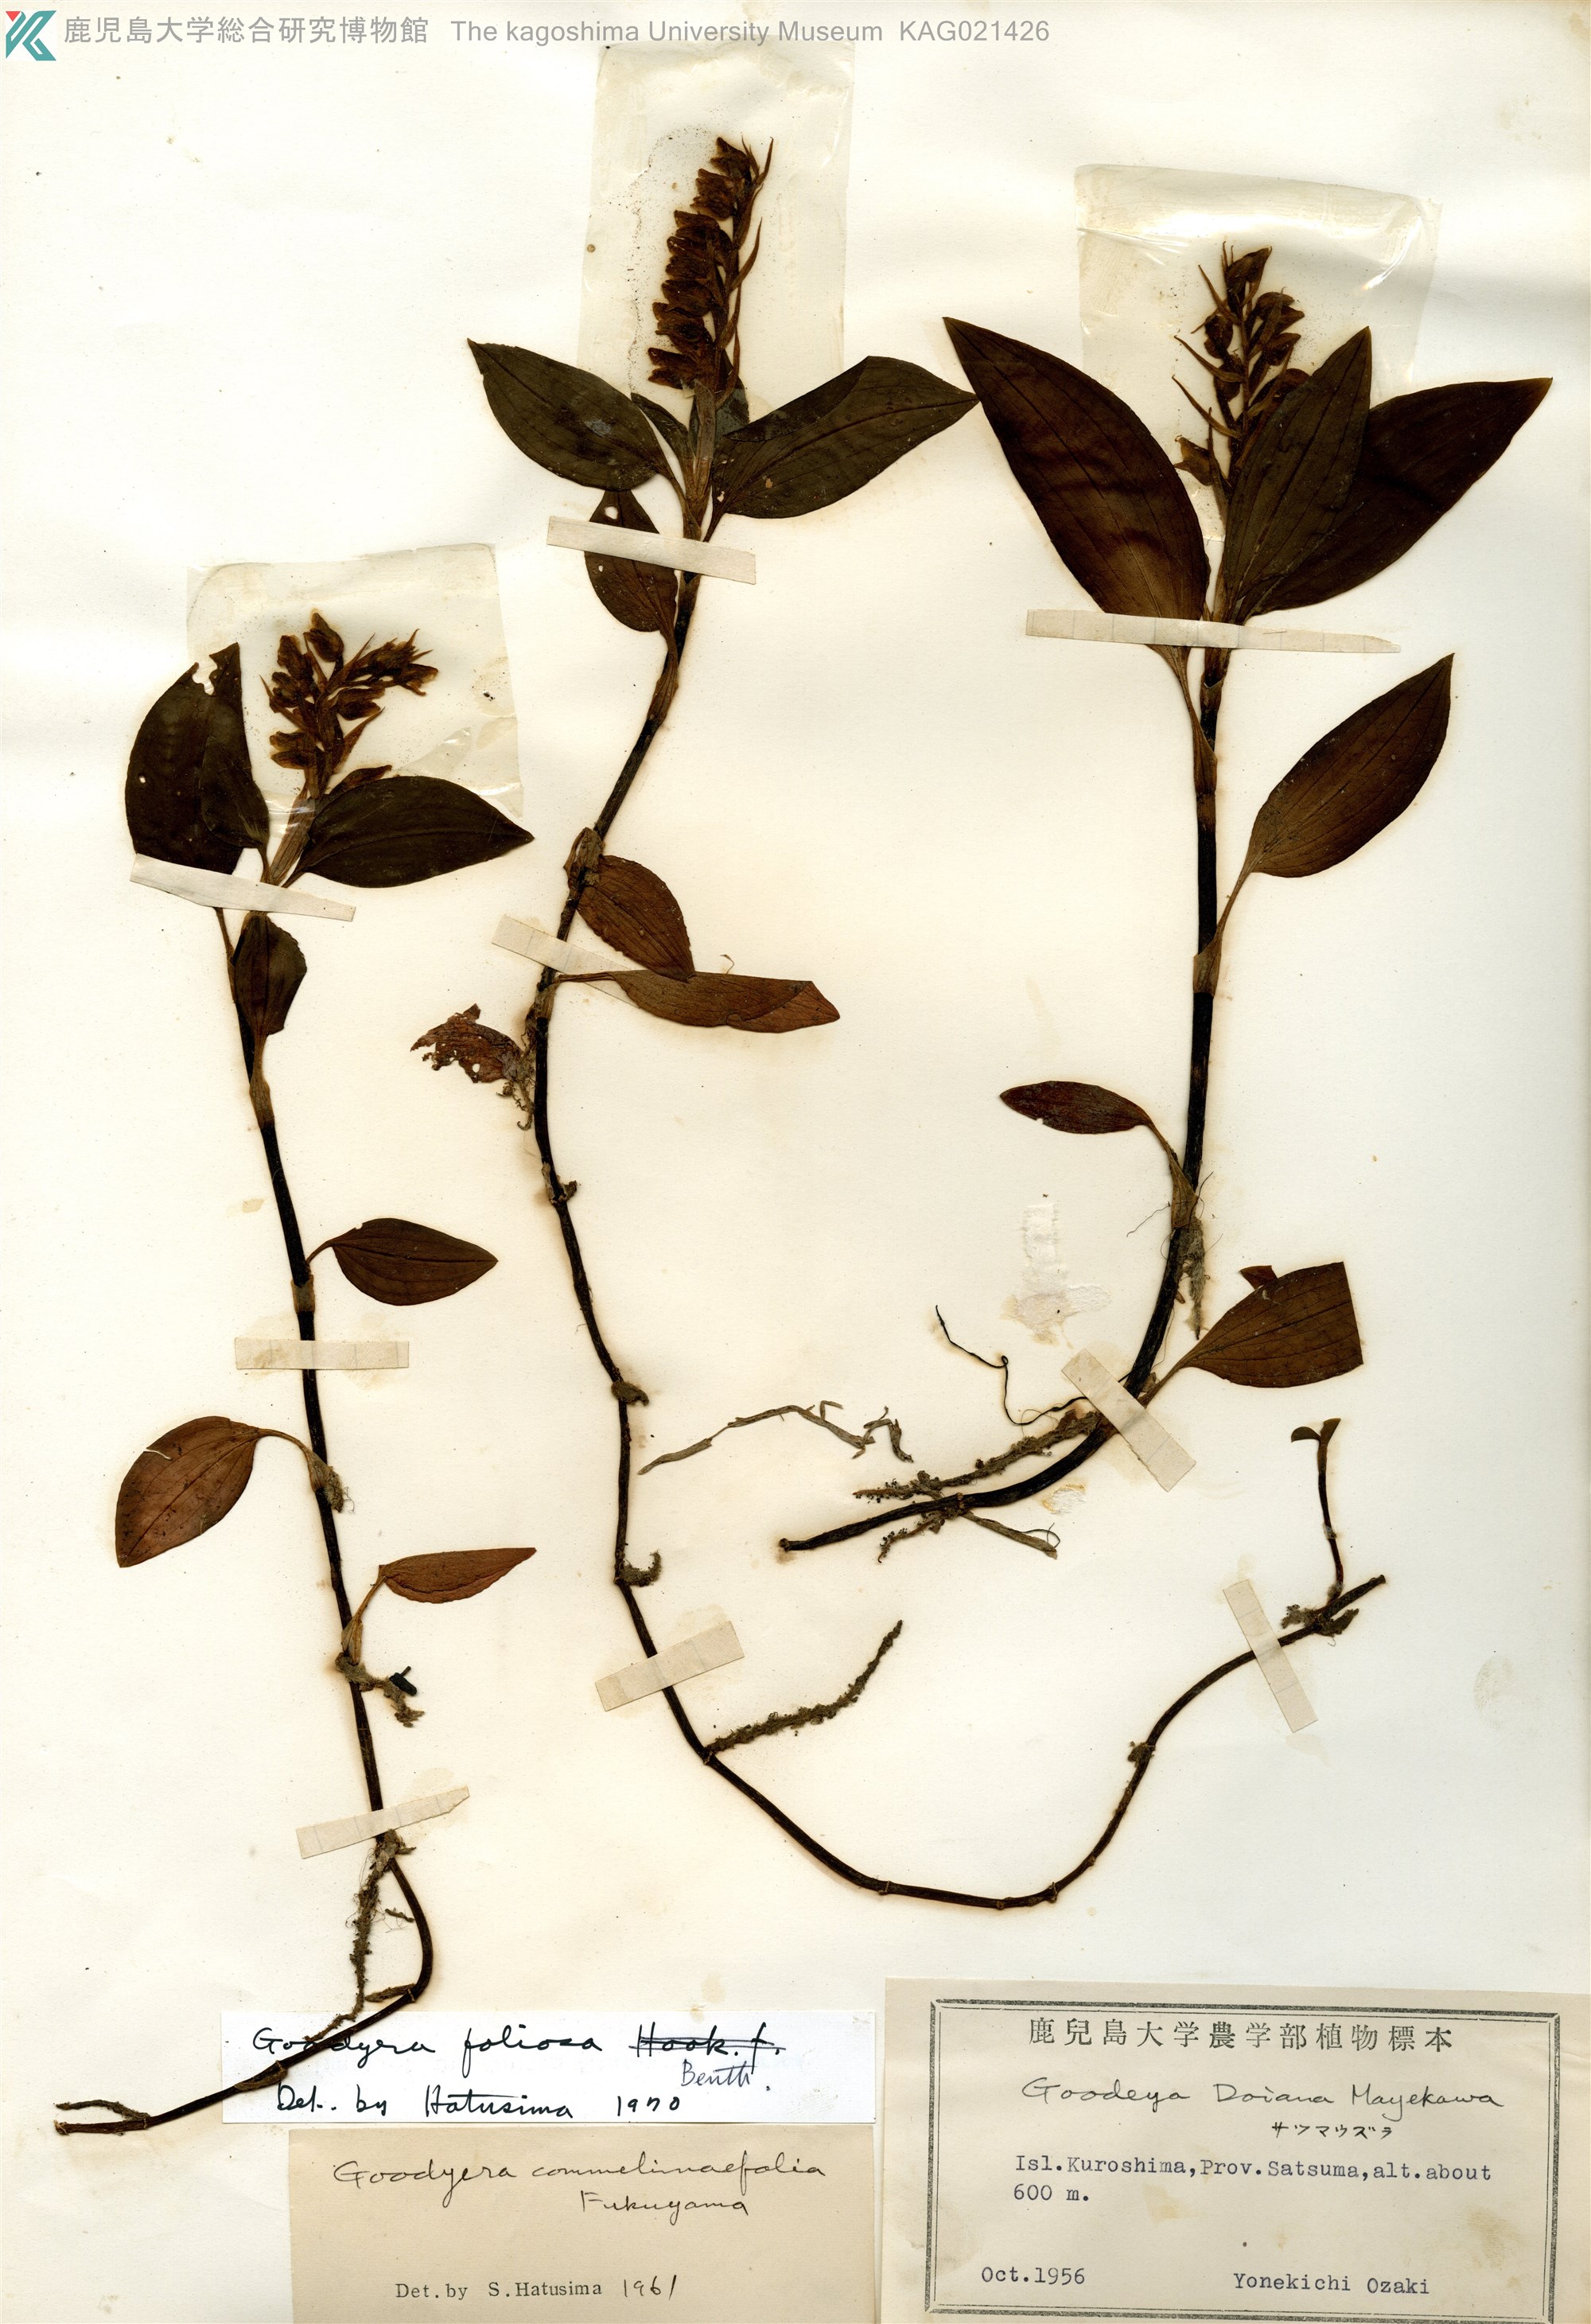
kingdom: Plantae
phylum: Tracheophyta
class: Liliopsida
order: Asparagales
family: Orchidaceae
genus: Goodyera
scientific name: Goodyera foliosa
